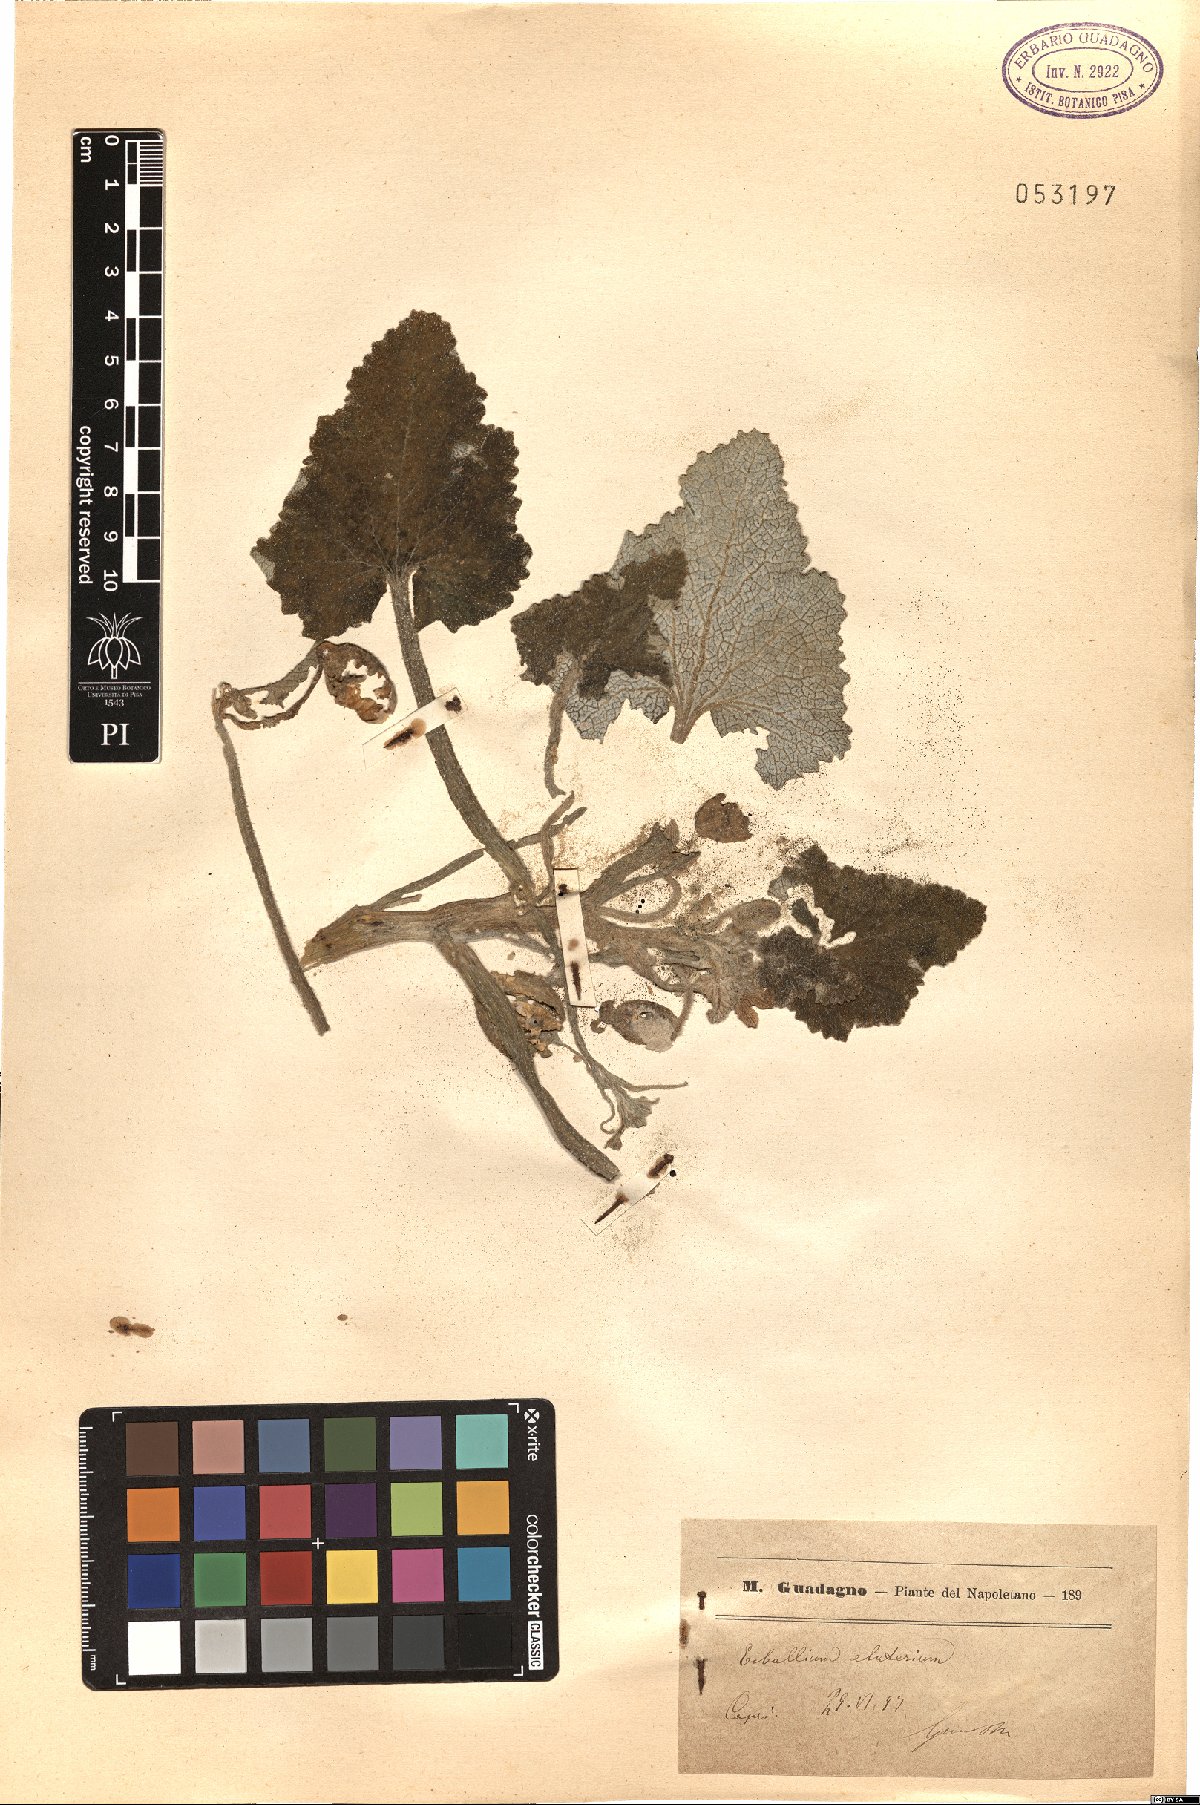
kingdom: Plantae
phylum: Tracheophyta
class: Magnoliopsida
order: Cucurbitales
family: Cucurbitaceae
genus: Ecballium
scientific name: Ecballium elaterium
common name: Squirting cucumber
